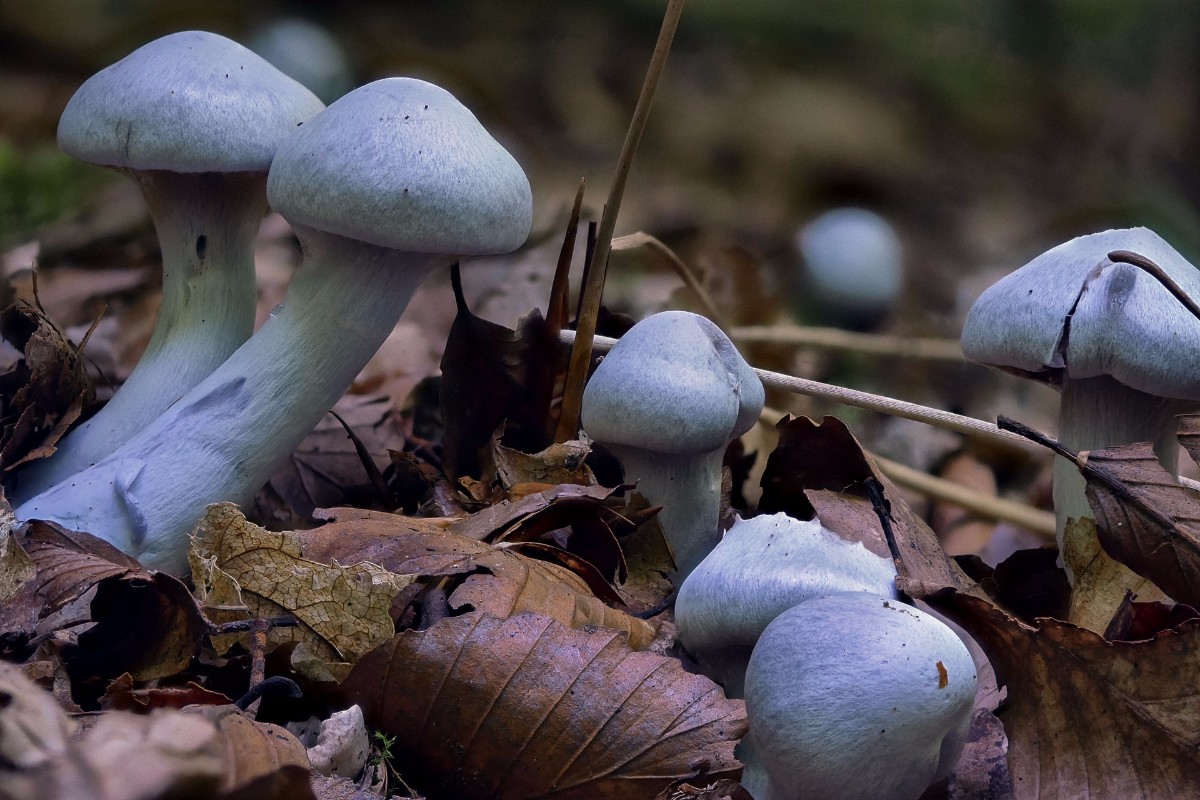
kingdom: Fungi
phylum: Basidiomycota
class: Agaricomycetes
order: Agaricales
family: Cortinariaceae
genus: Cortinarius
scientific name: Cortinarius alboviolaceus
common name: lysviolet slørhat
